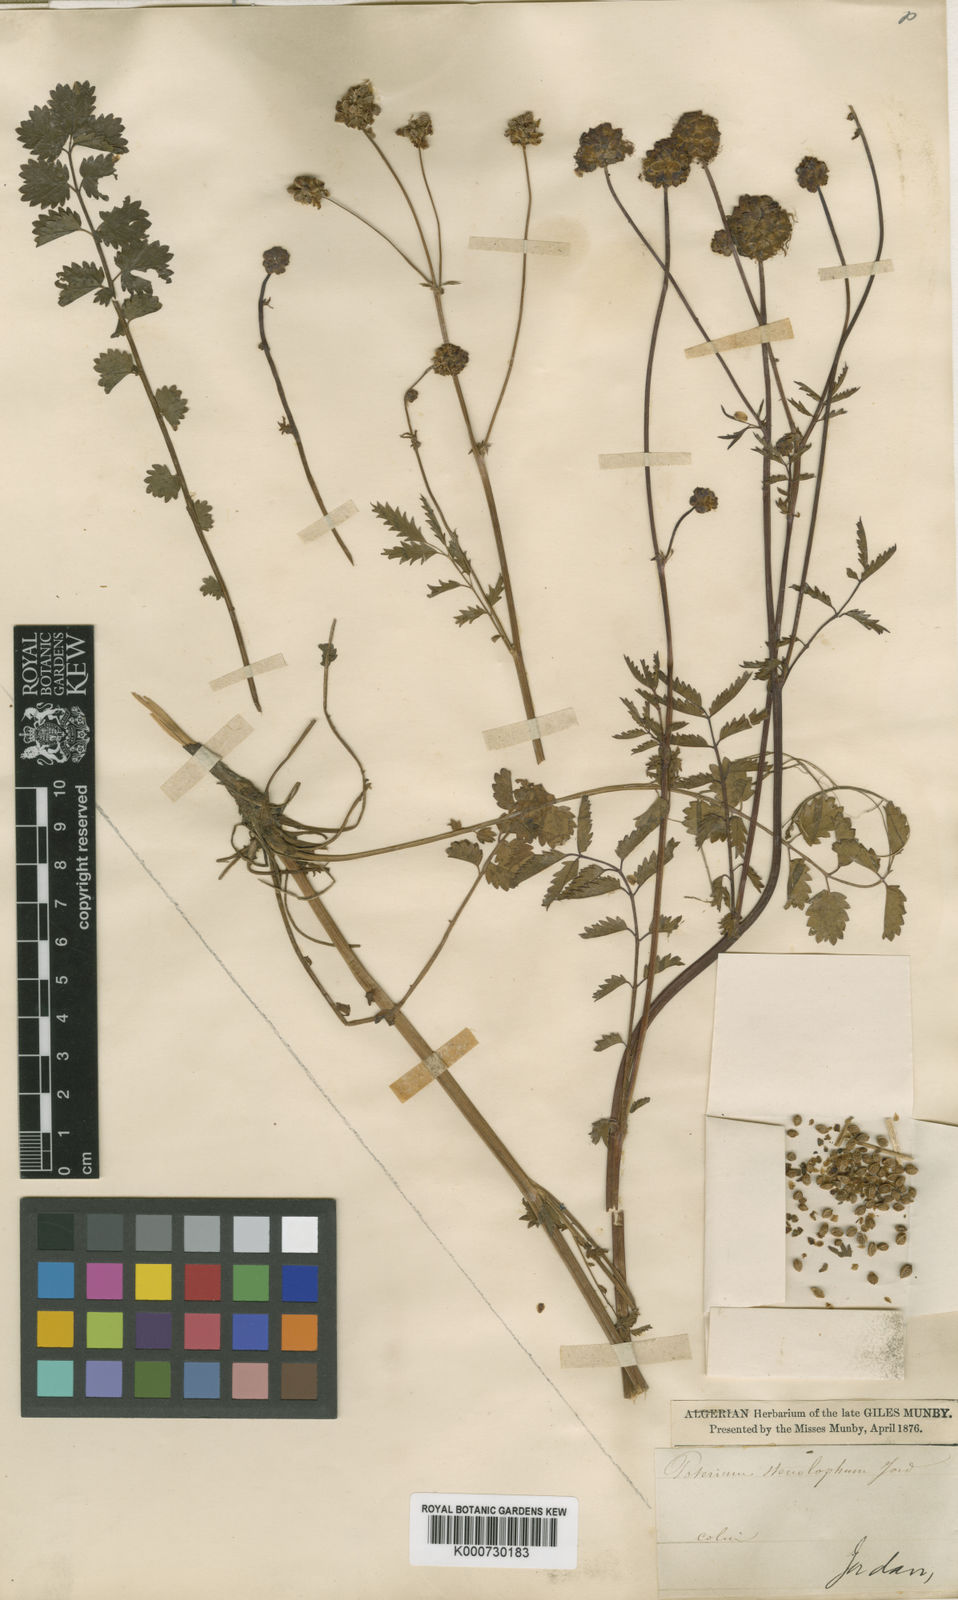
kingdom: Plantae
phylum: Tracheophyta
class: Magnoliopsida
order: Rosales
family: Rosaceae
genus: Sanguisorba
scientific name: Sanguisorba
